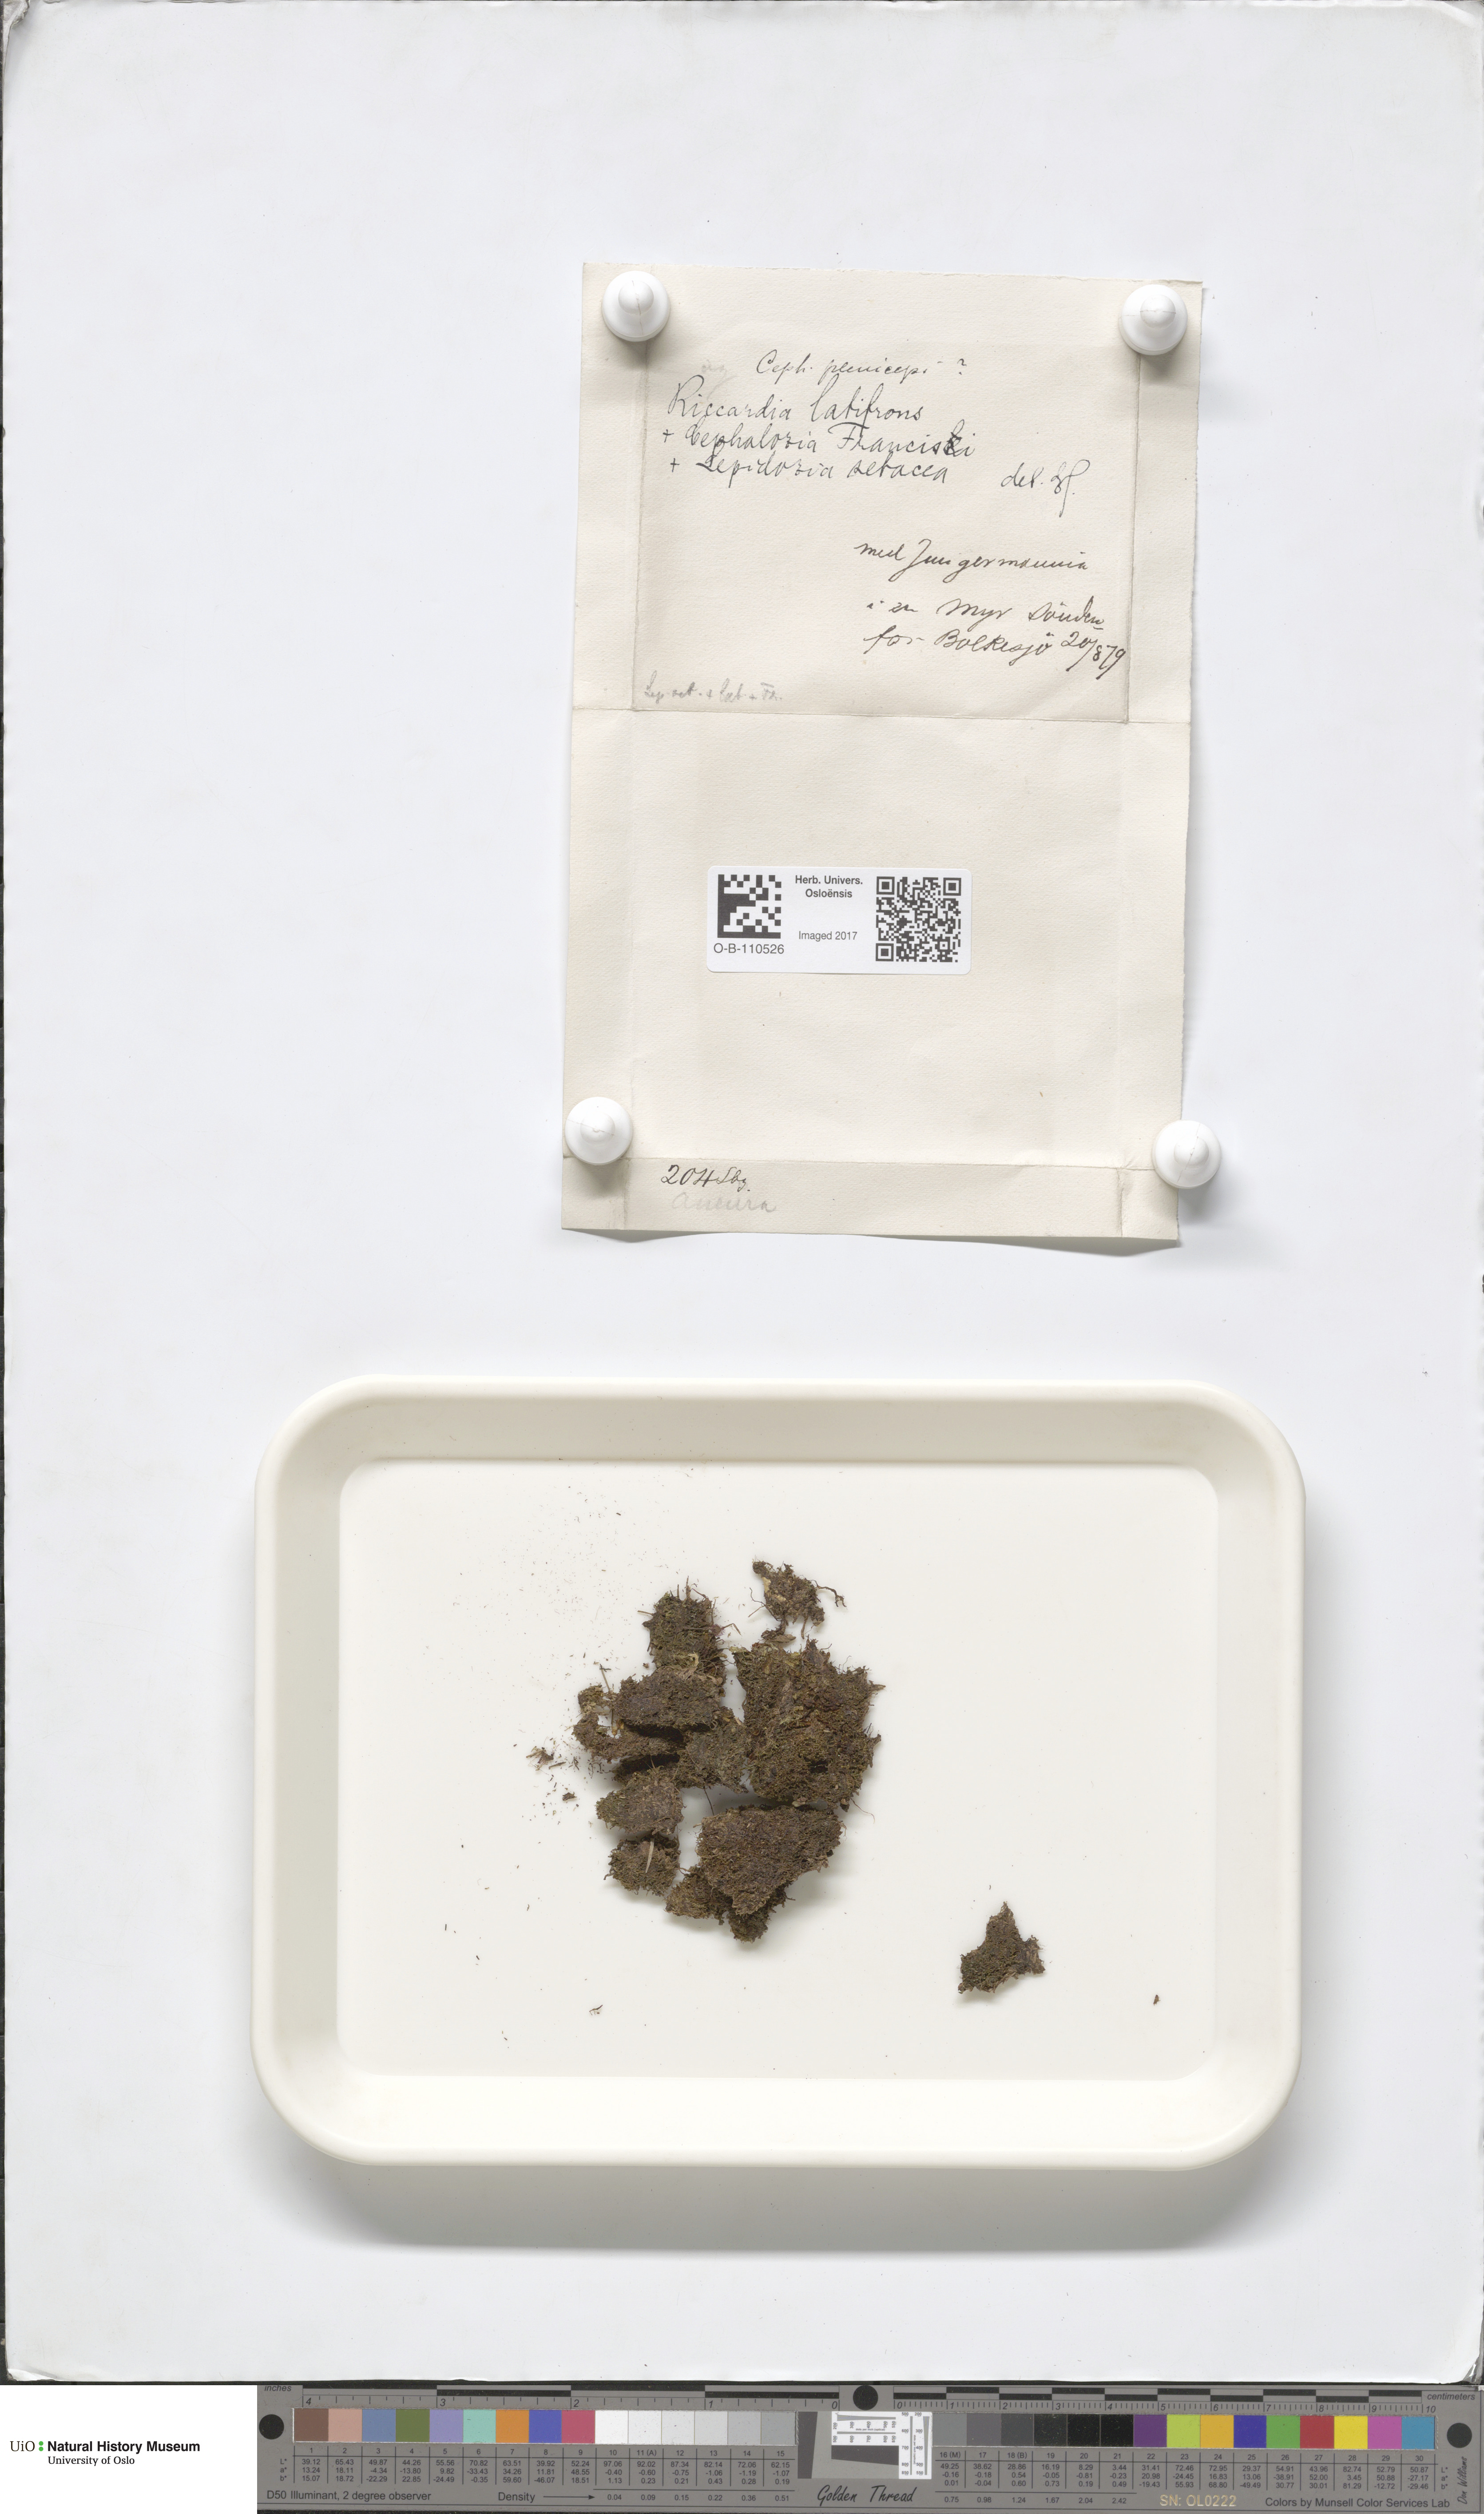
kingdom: Plantae
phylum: Marchantiophyta
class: Jungermanniopsida
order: Metzgeriales
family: Aneuraceae
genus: Riccardia
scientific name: Riccardia latifrons
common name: Bog germanderwort
